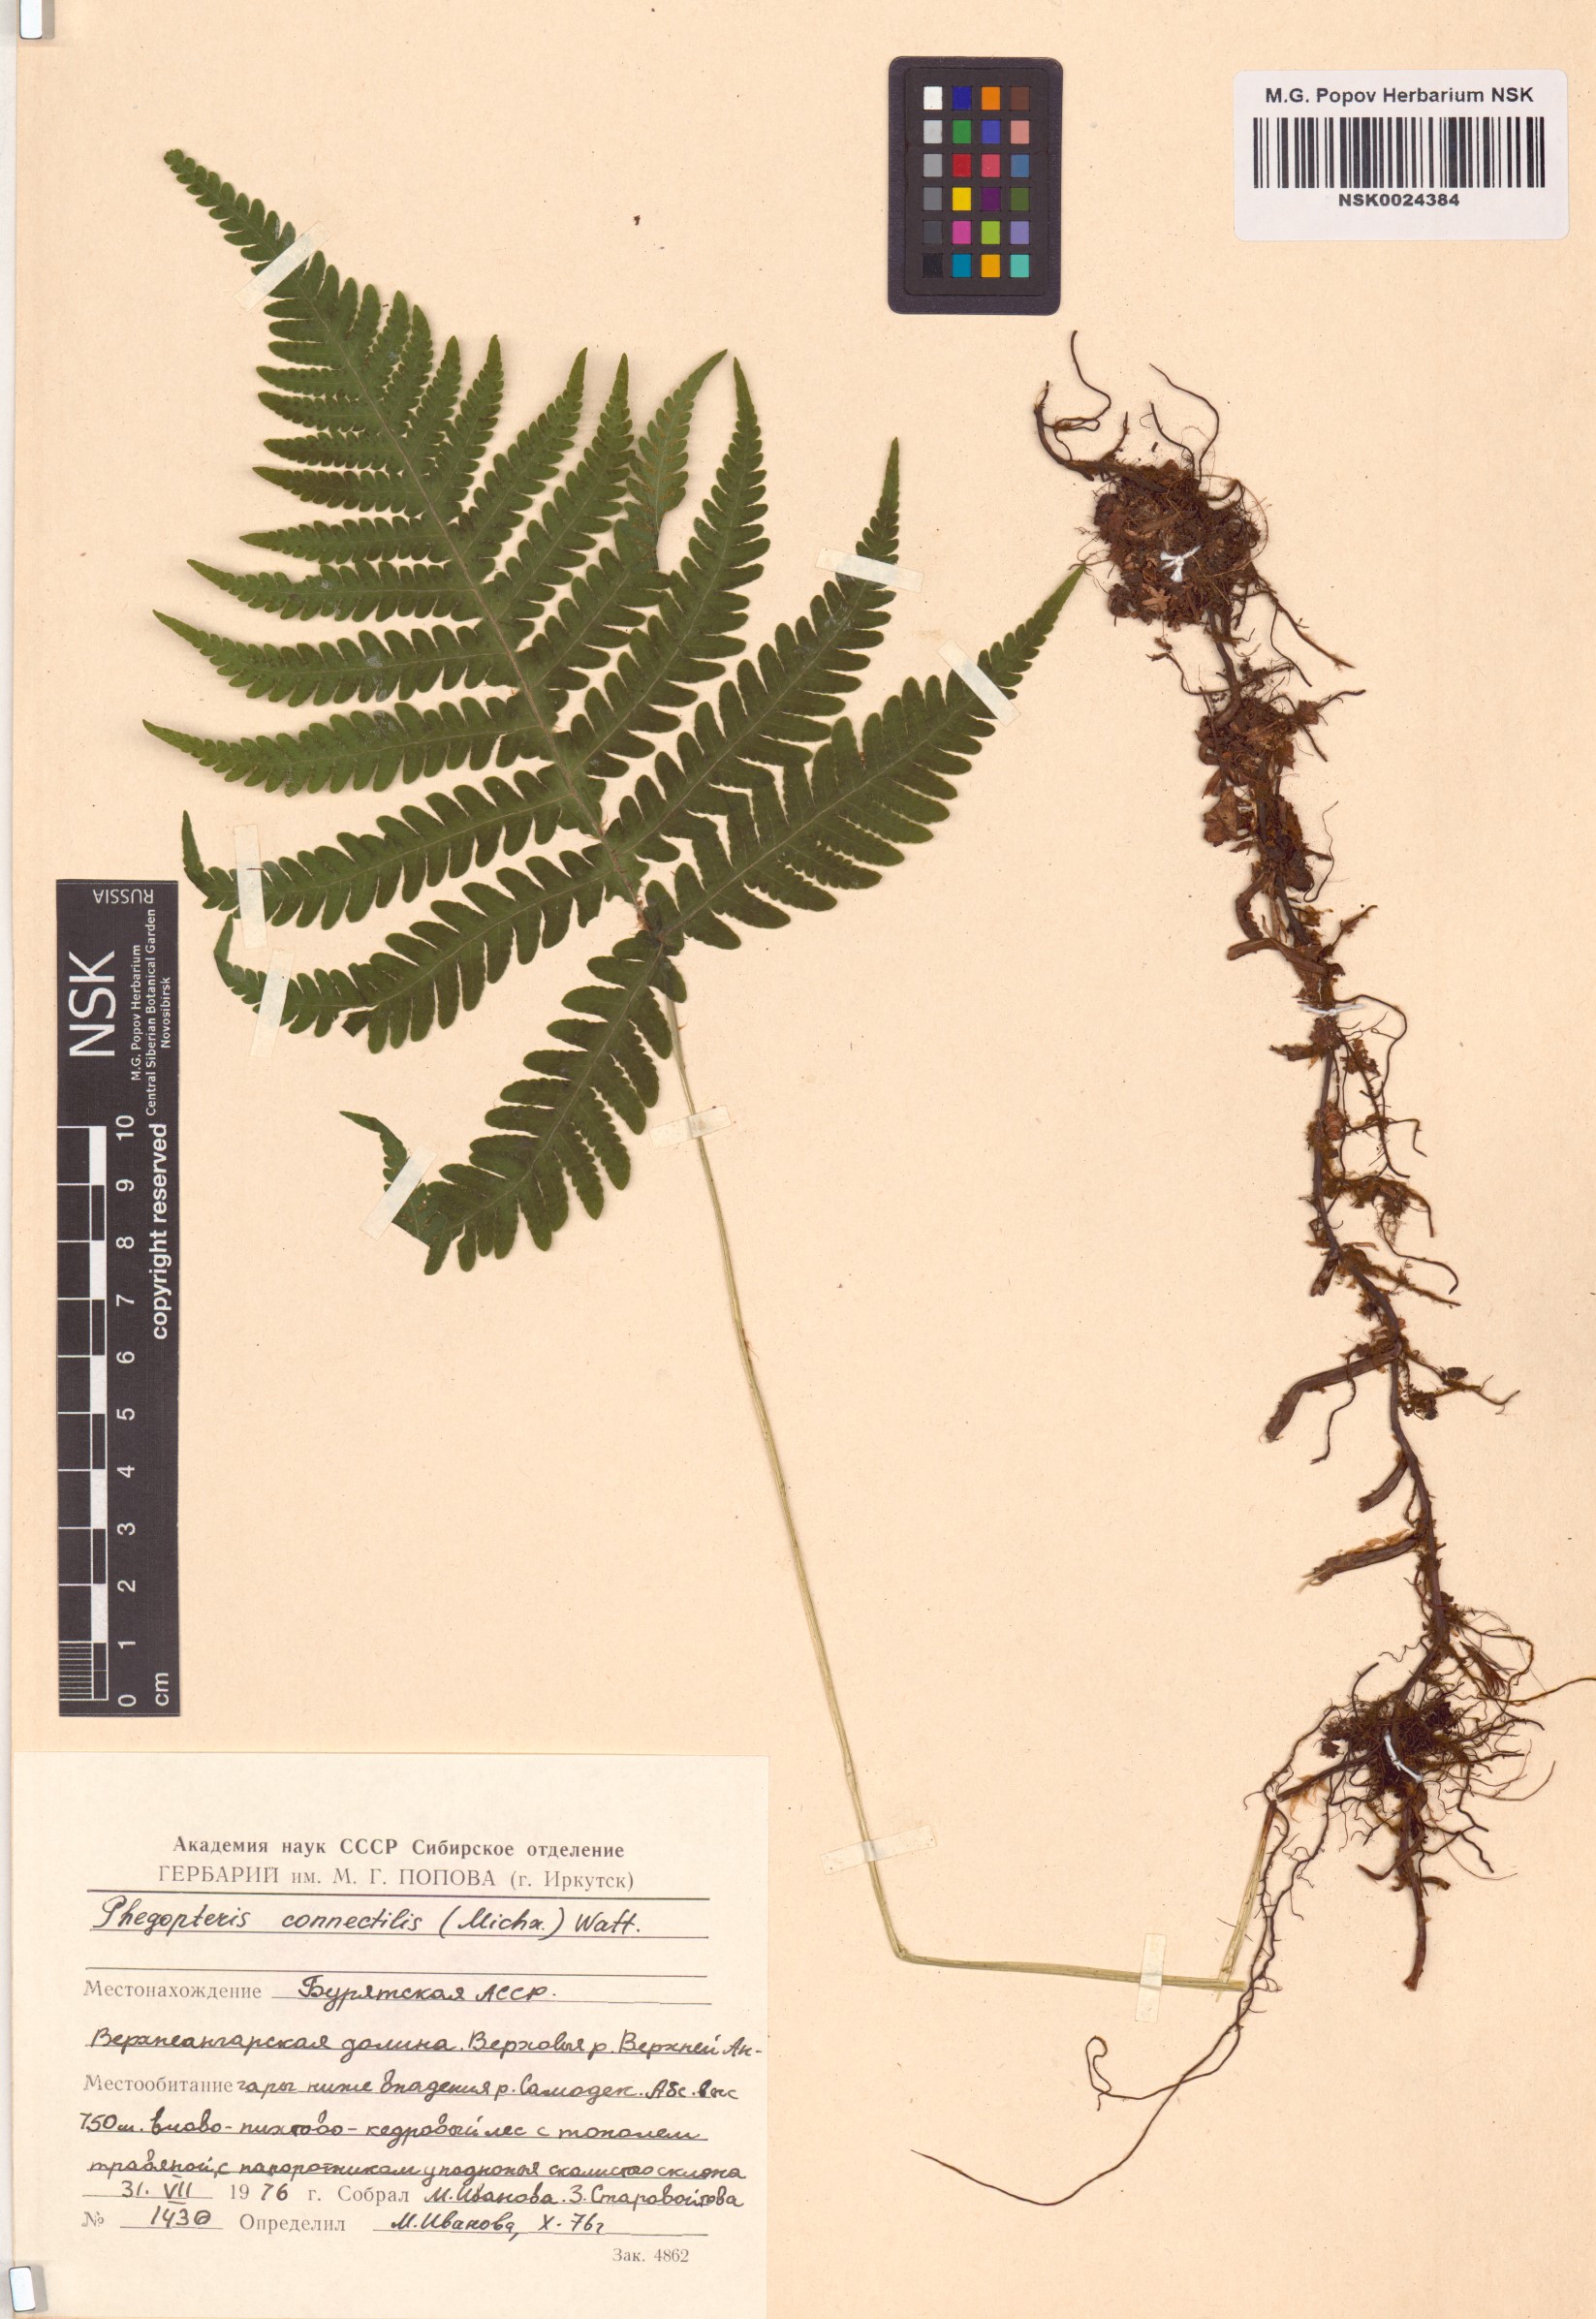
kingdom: Plantae
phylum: Tracheophyta
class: Polypodiopsida
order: Polypodiales
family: Thelypteridaceae
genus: Phegopteris
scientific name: Phegopteris connectilis
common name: Beech fern
